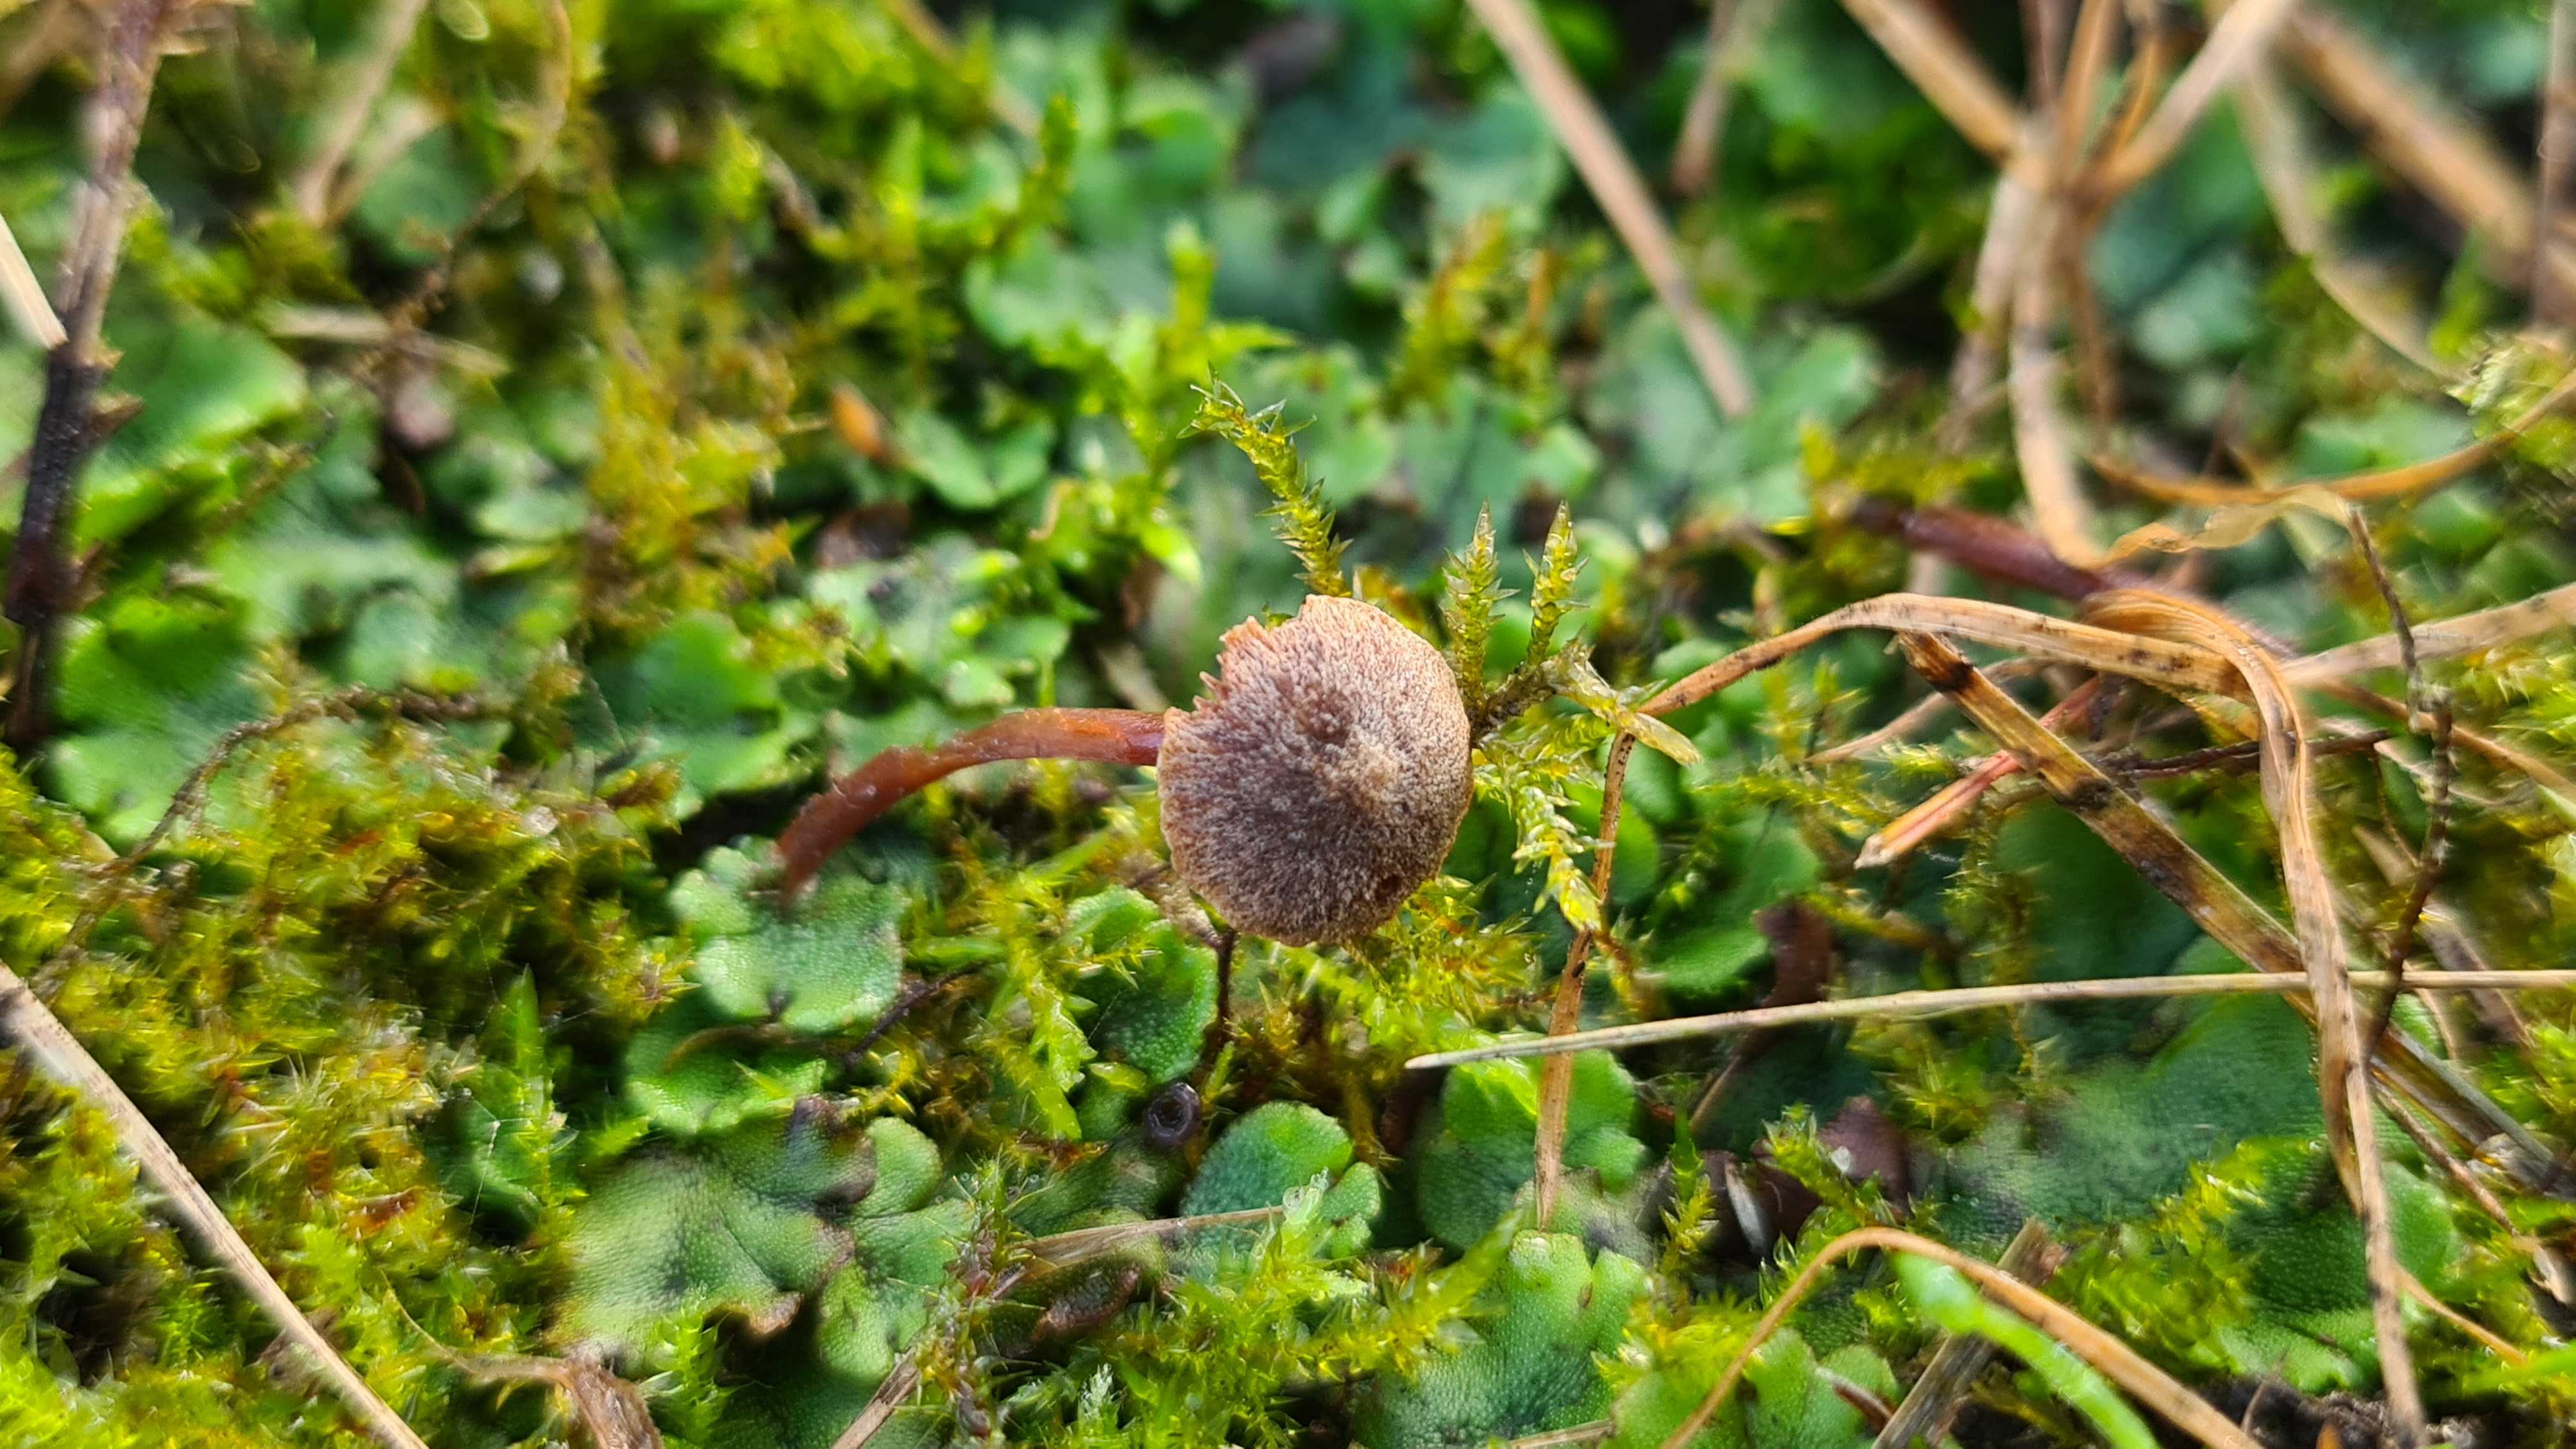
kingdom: Fungi
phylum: Basidiomycota
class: Agaricomycetes
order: Agaricales
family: Strophariaceae
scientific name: Strophariaceae
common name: bredbladfamilien
